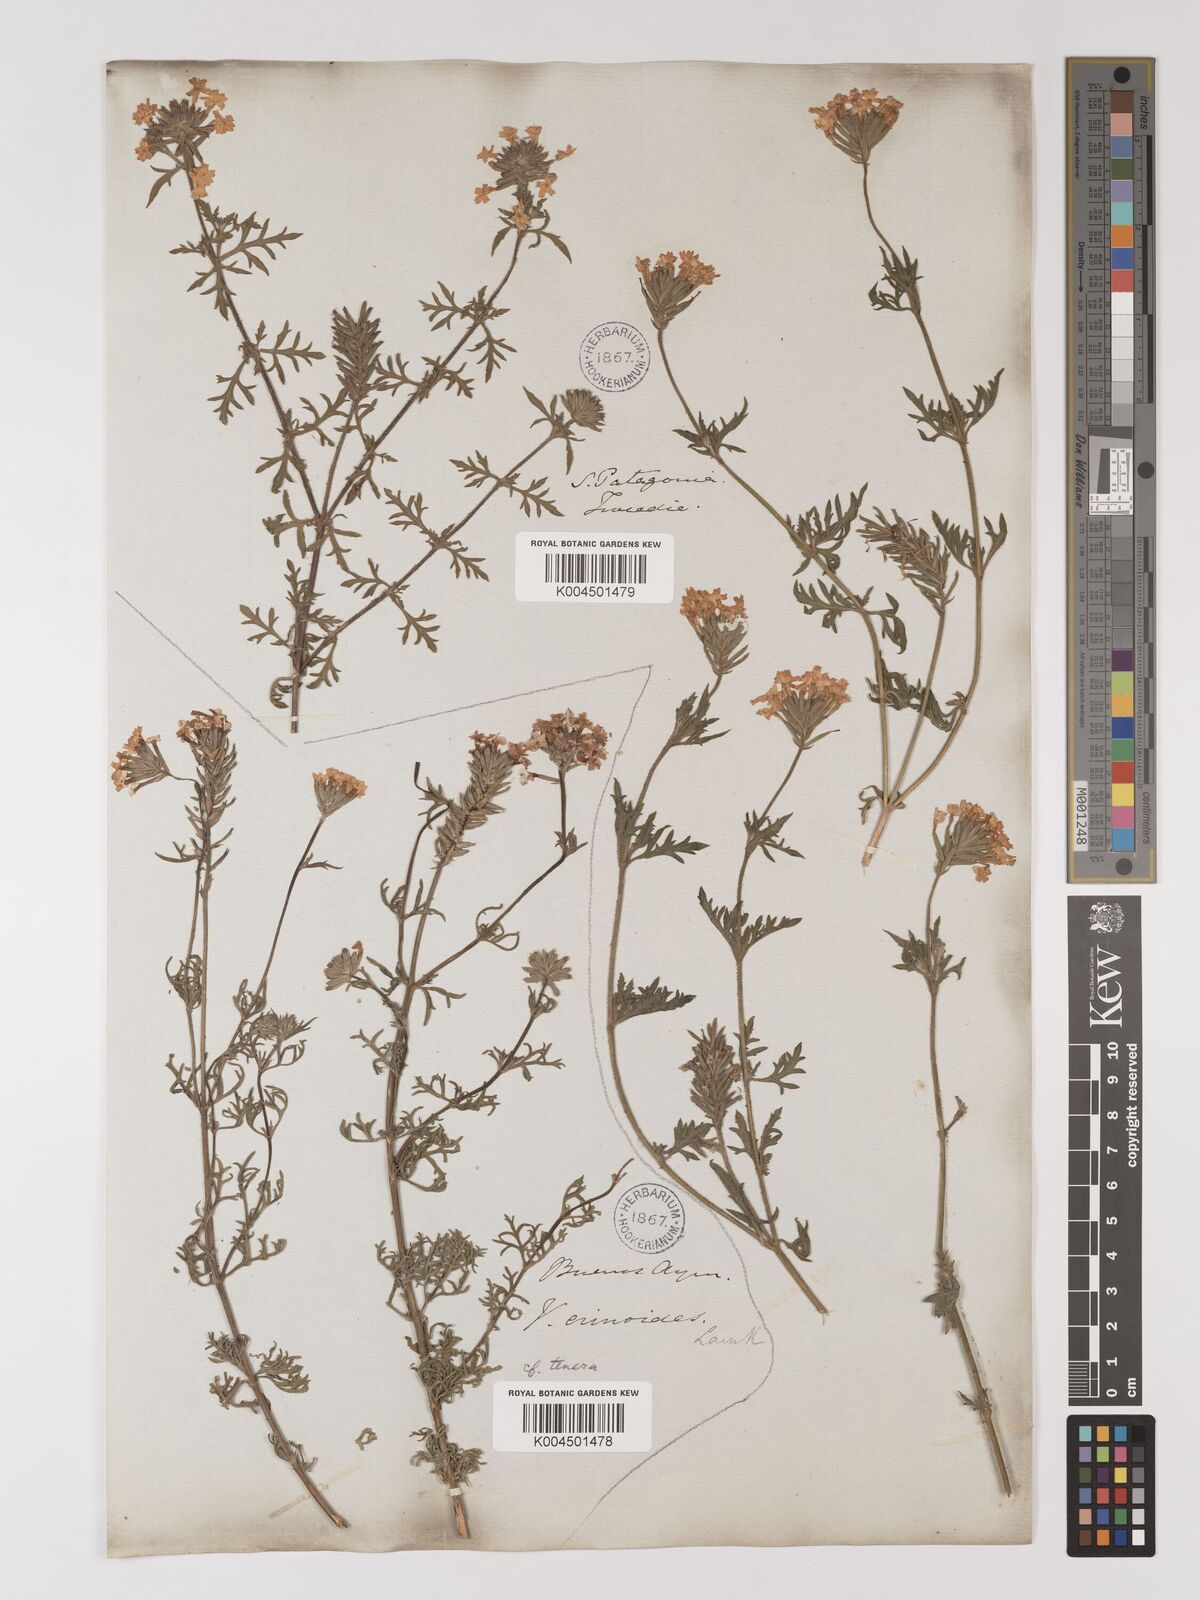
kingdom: Plantae
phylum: Tracheophyta
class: Magnoliopsida
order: Lamiales
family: Verbenaceae
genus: Verbena
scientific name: Verbena tenera
